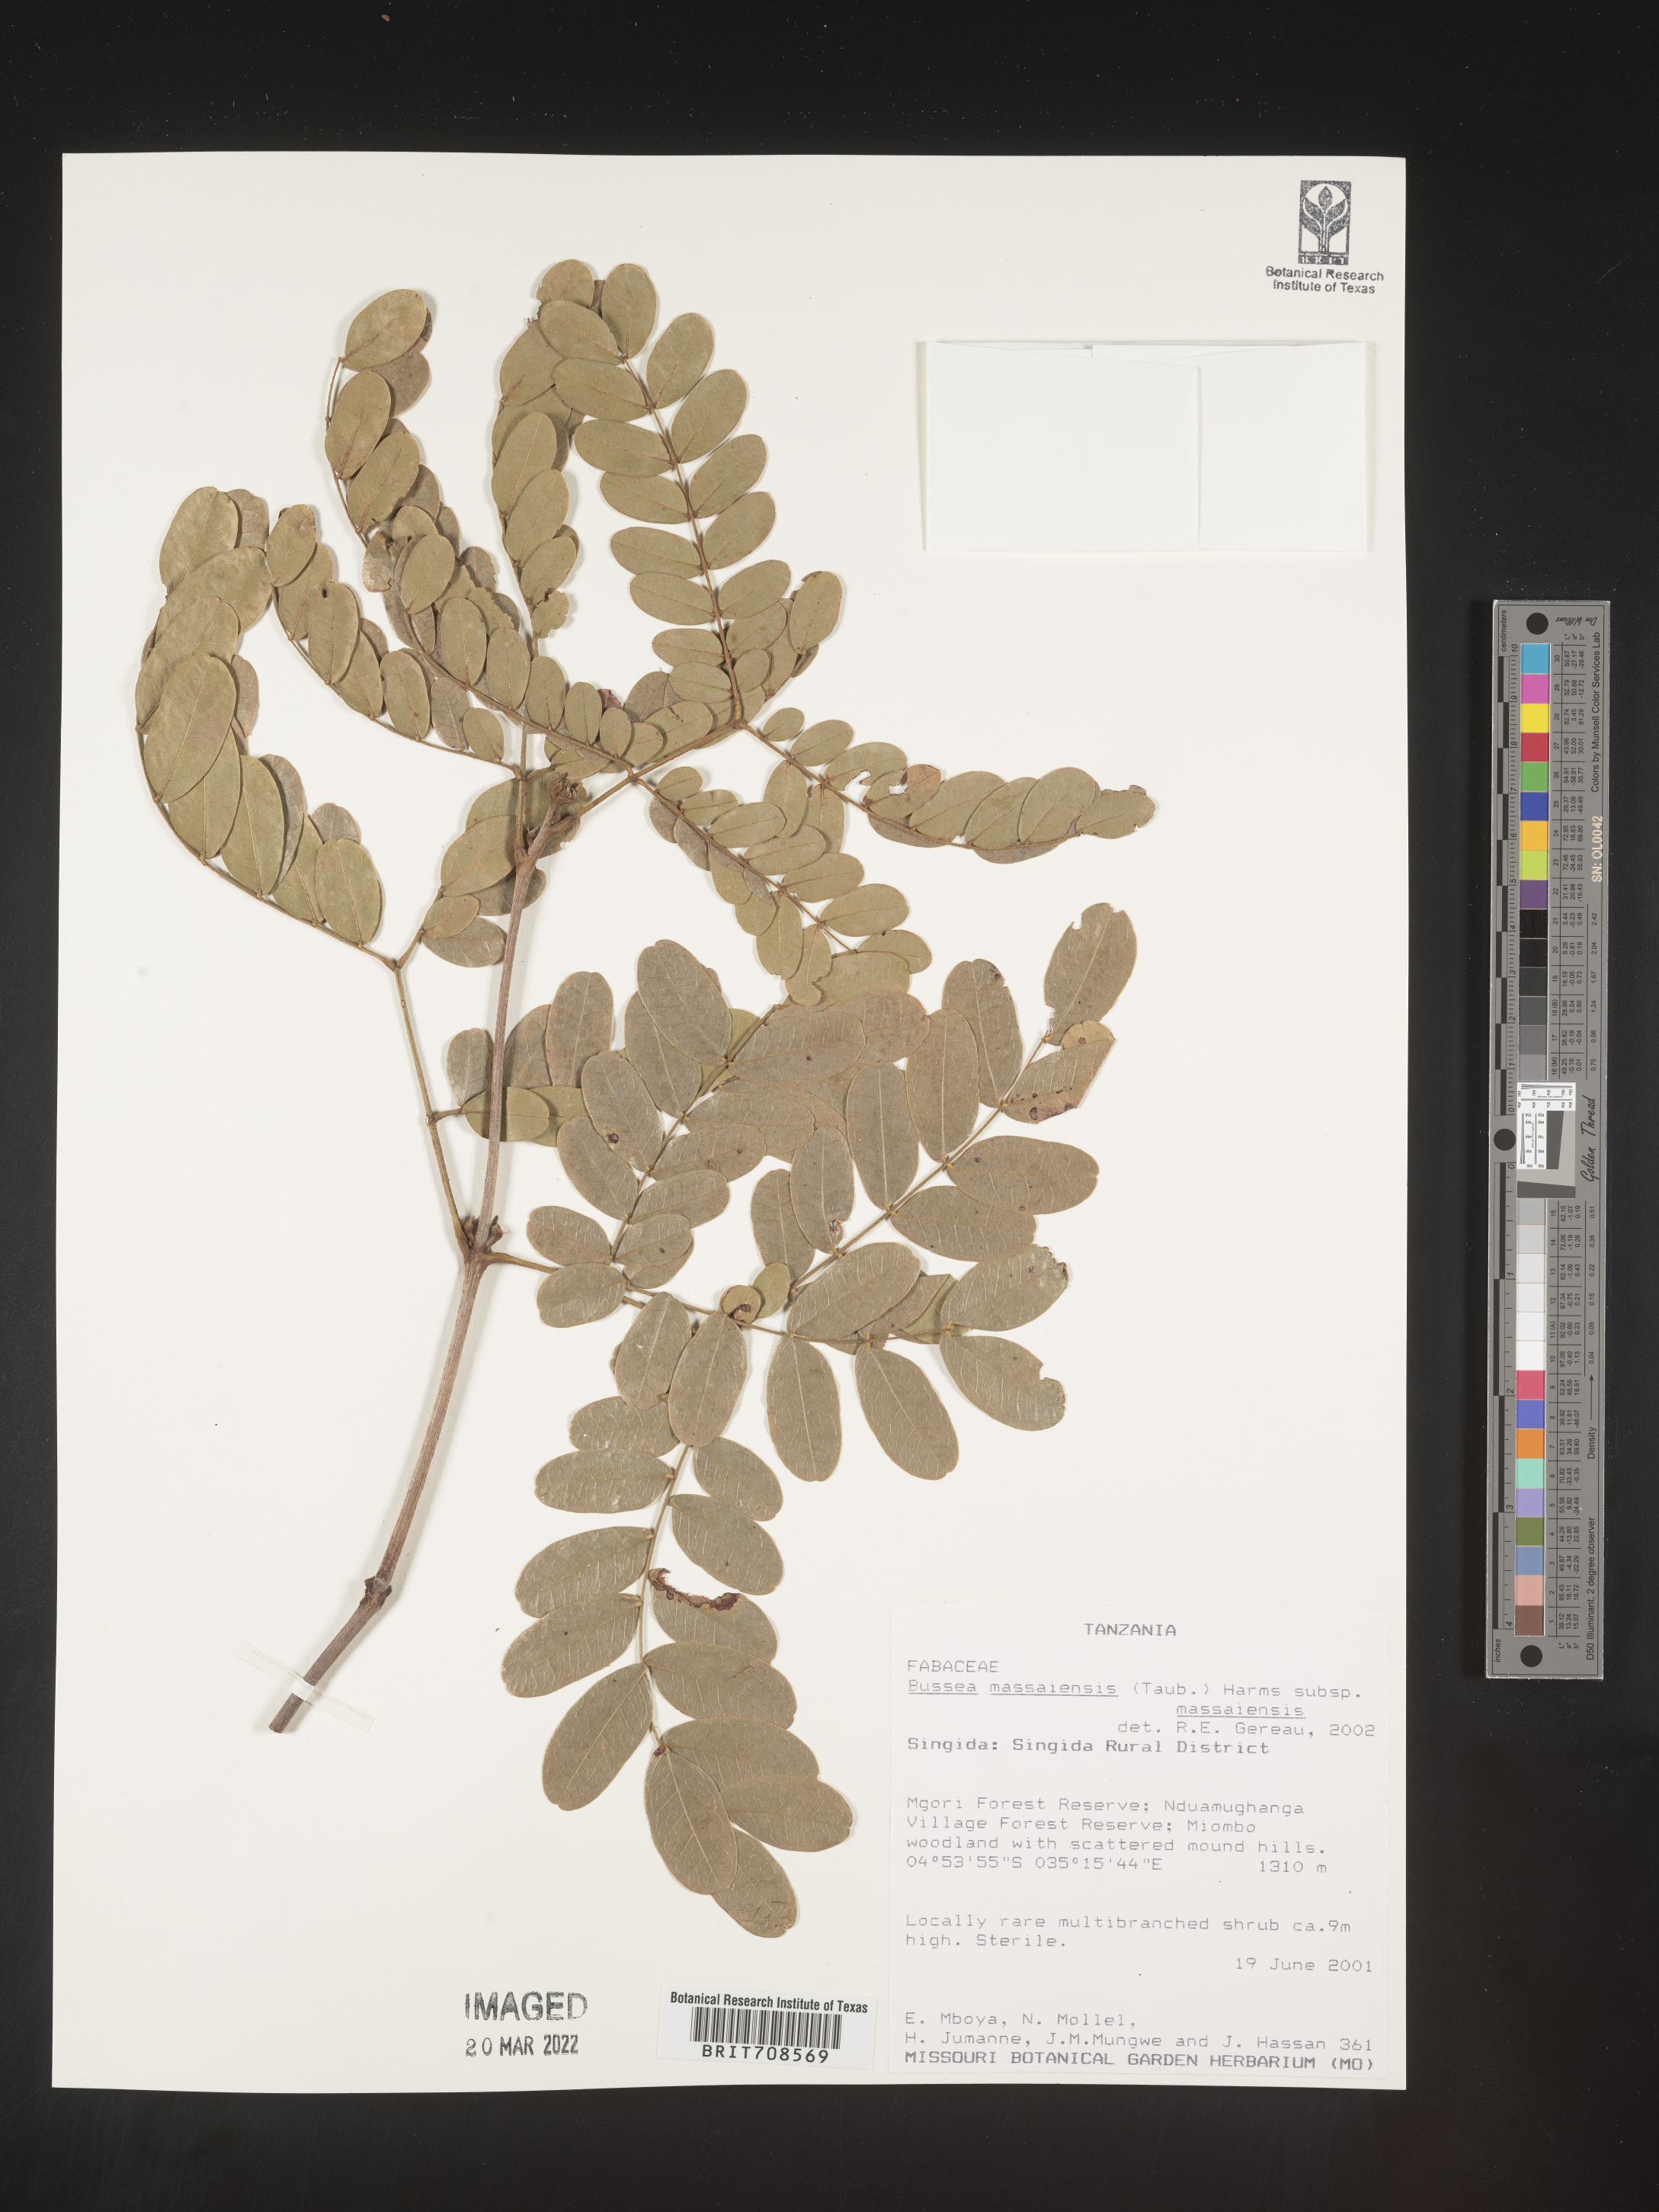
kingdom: Plantae
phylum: Tracheophyta
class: Magnoliopsida
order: Fabales
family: Fabaceae
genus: Bussea
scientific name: Bussea
